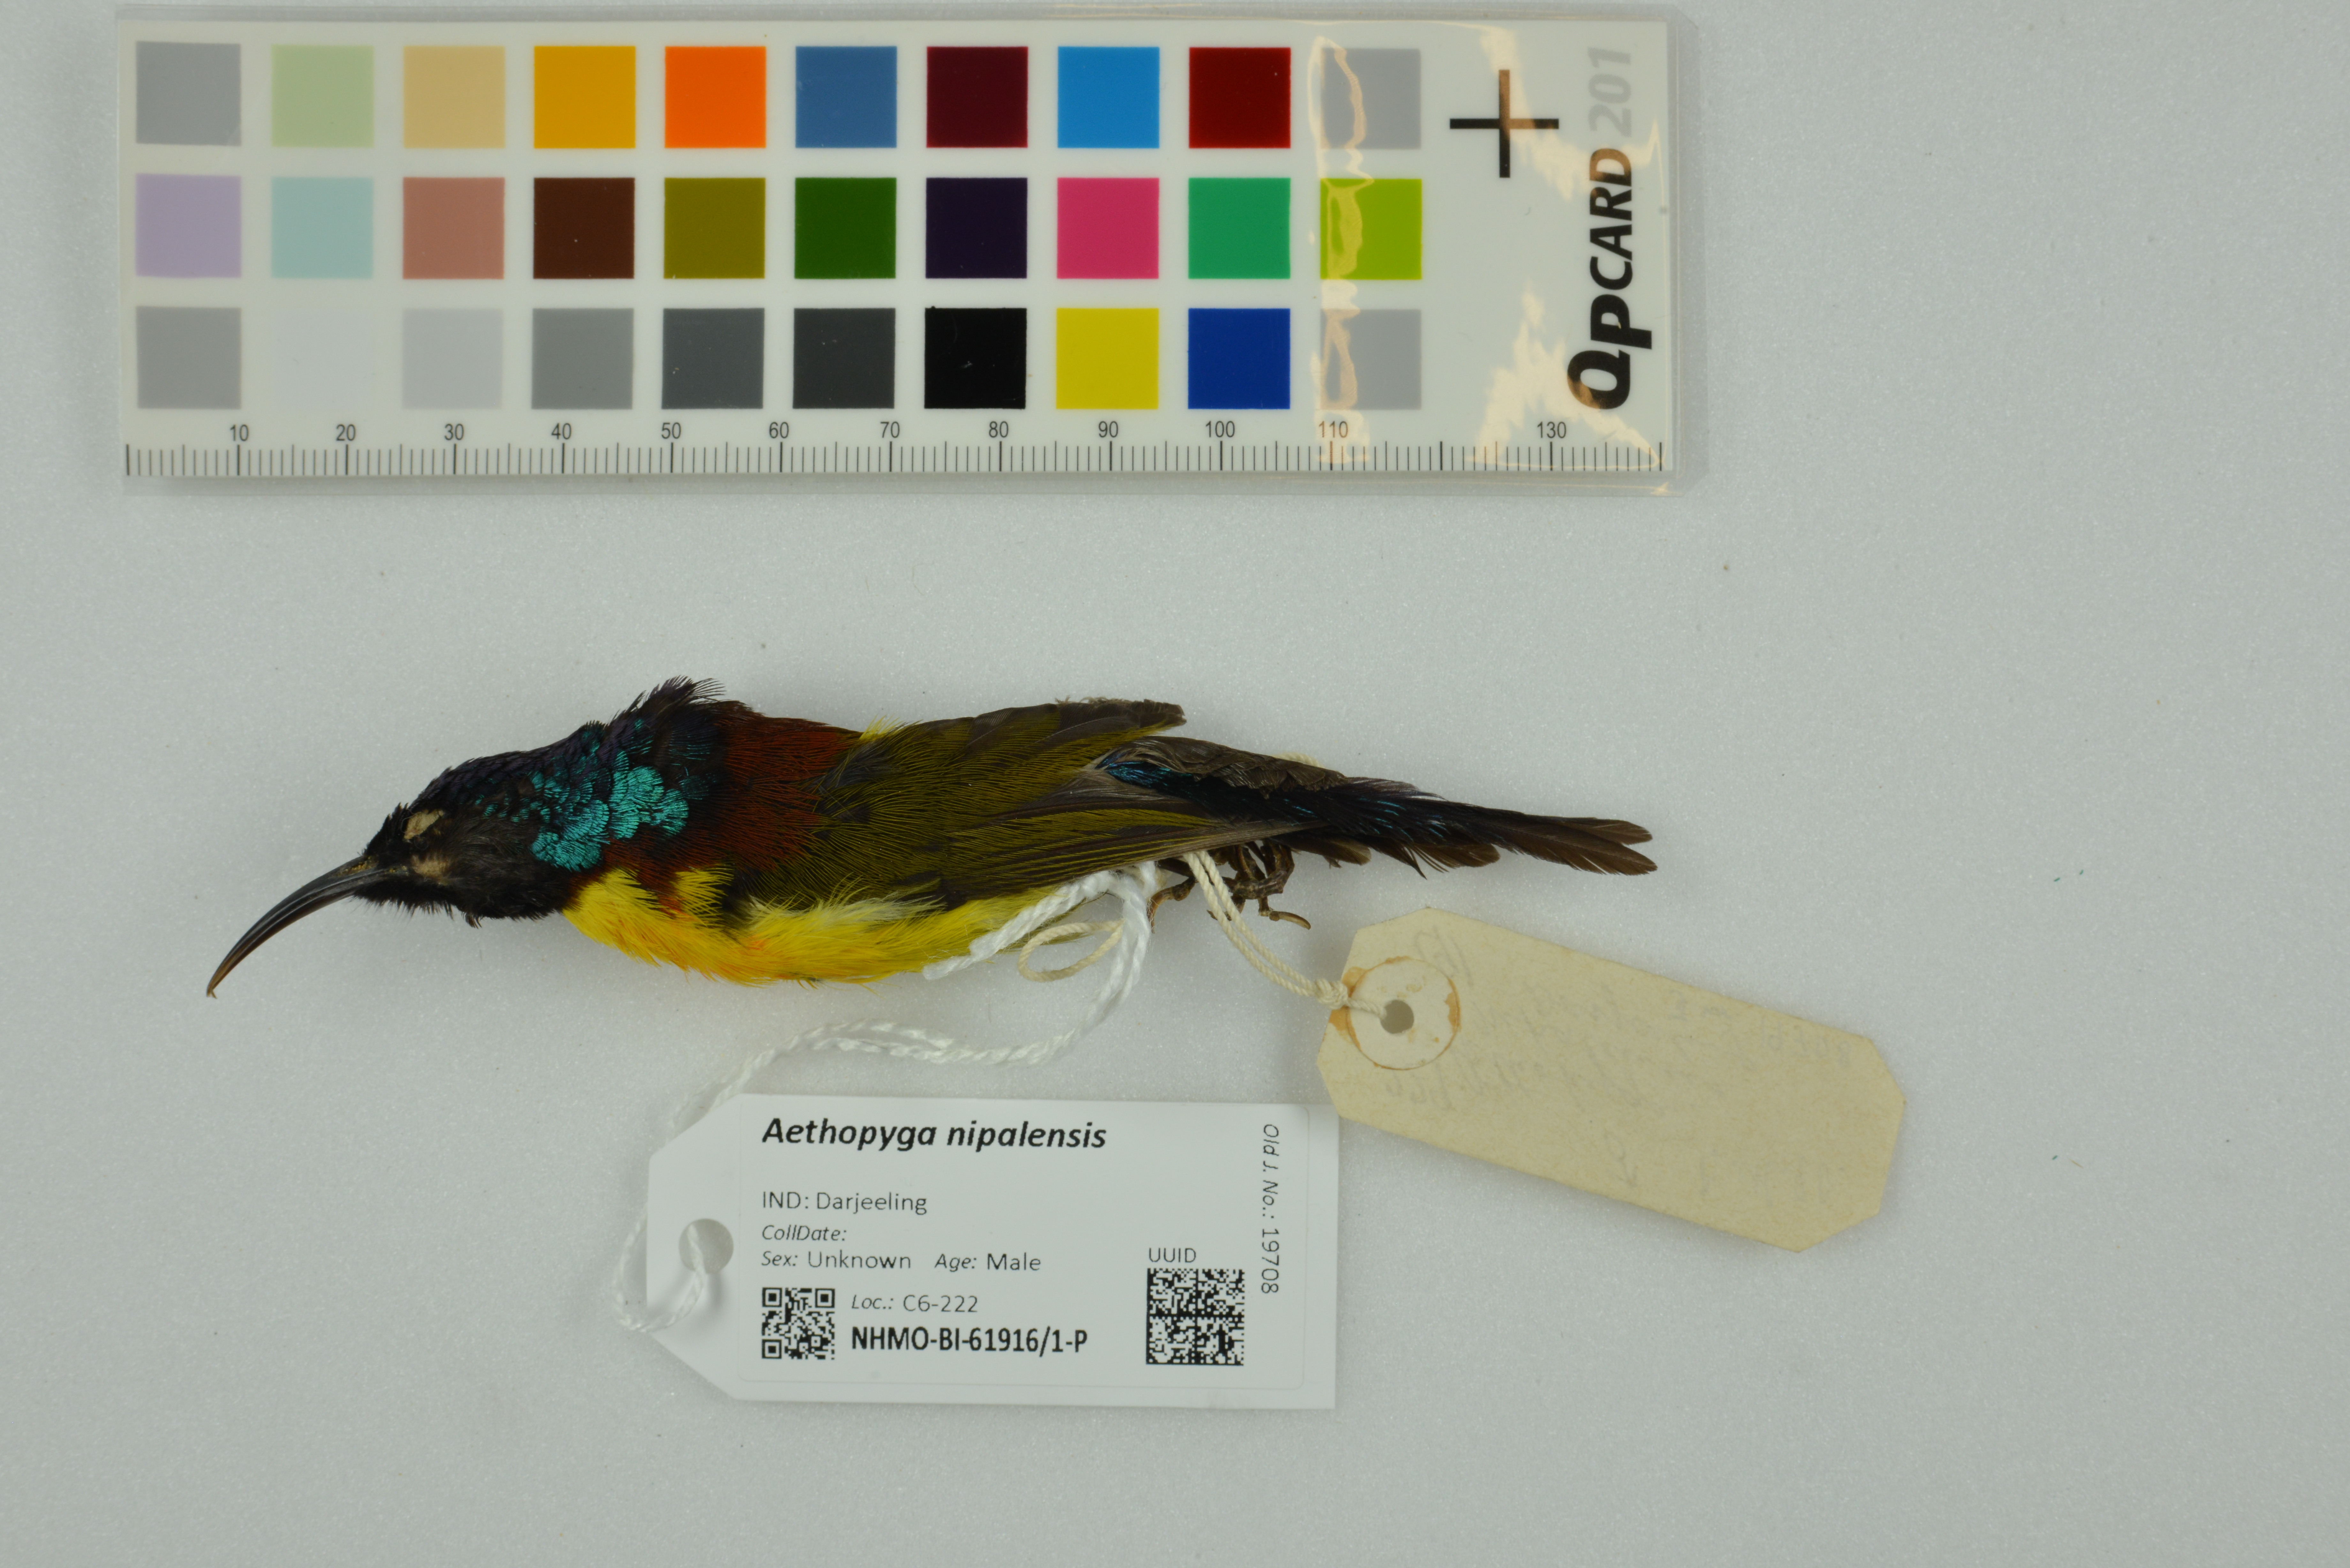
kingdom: Animalia
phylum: Chordata
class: Aves
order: Passeriformes
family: Nectariniidae
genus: Aethopyga
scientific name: Aethopyga nipalensis
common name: Green-tailed sunbird
